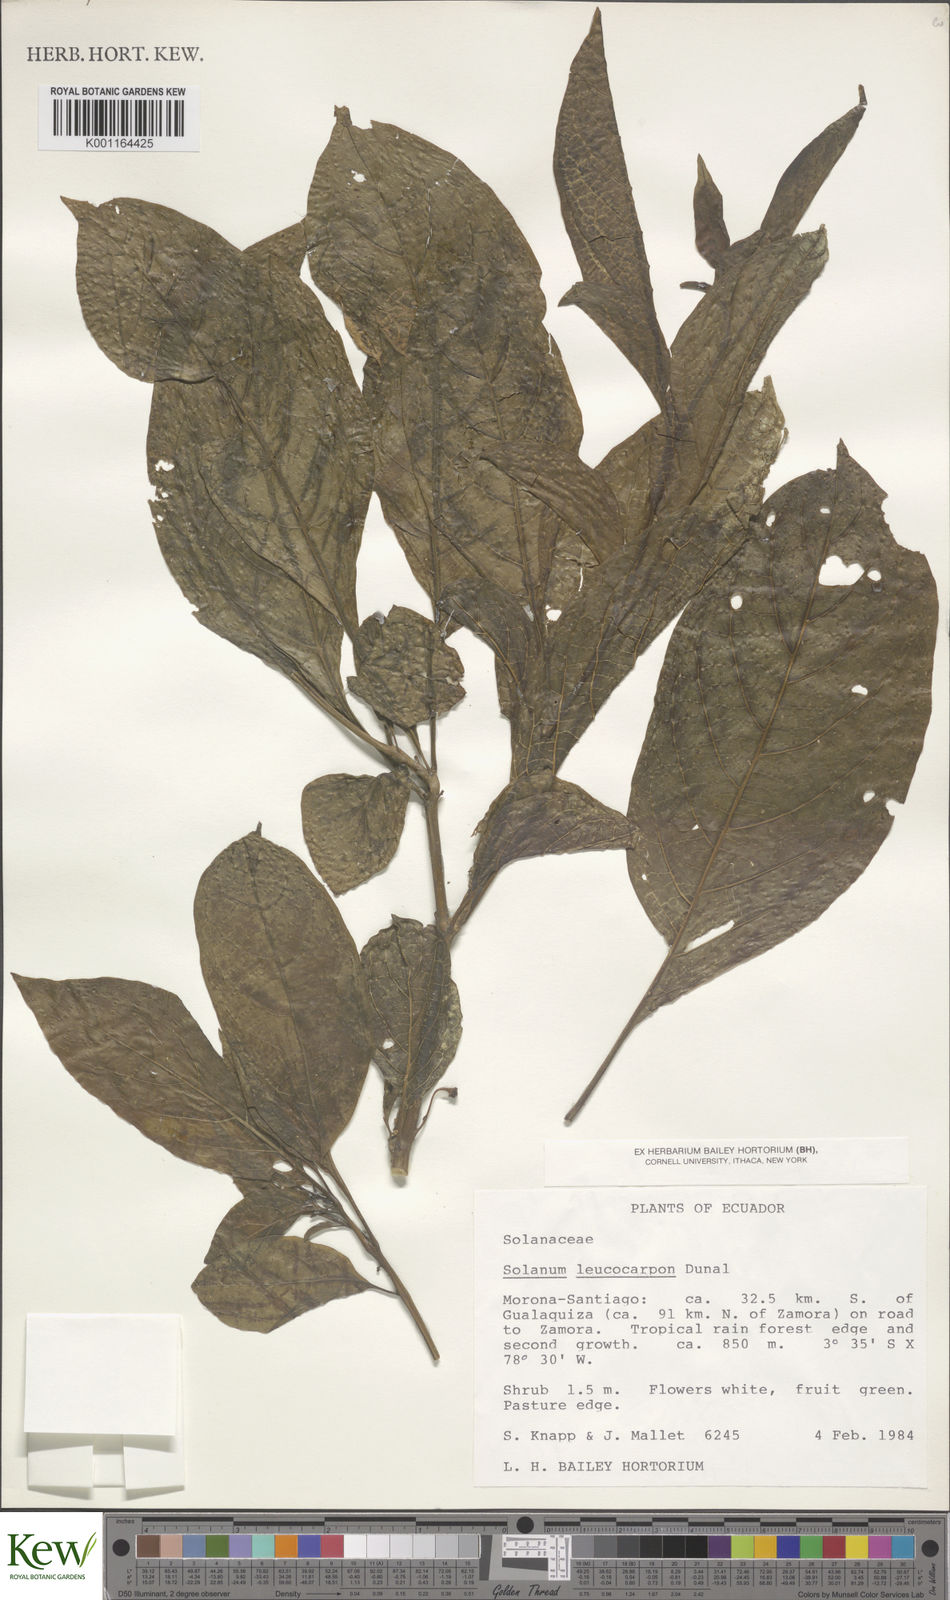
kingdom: Plantae
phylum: Tracheophyta
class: Magnoliopsida
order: Solanales
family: Solanaceae
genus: Solanum
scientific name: Solanum leucocarpon
